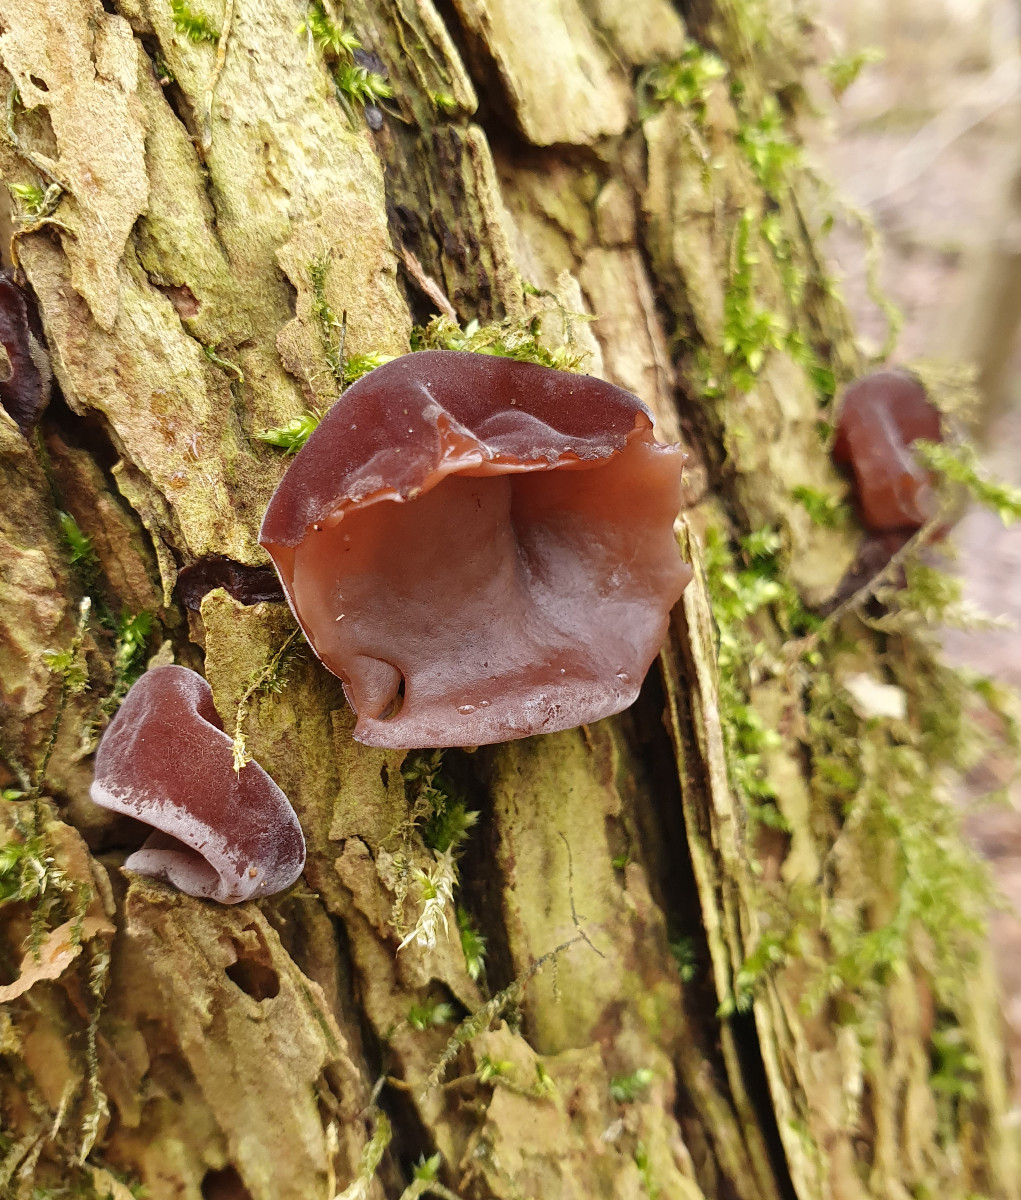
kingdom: Fungi
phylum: Basidiomycota
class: Agaricomycetes
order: Auriculariales
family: Auriculariaceae
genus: Auricularia
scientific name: Auricularia auricula-judae
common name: almindelig judasøre
